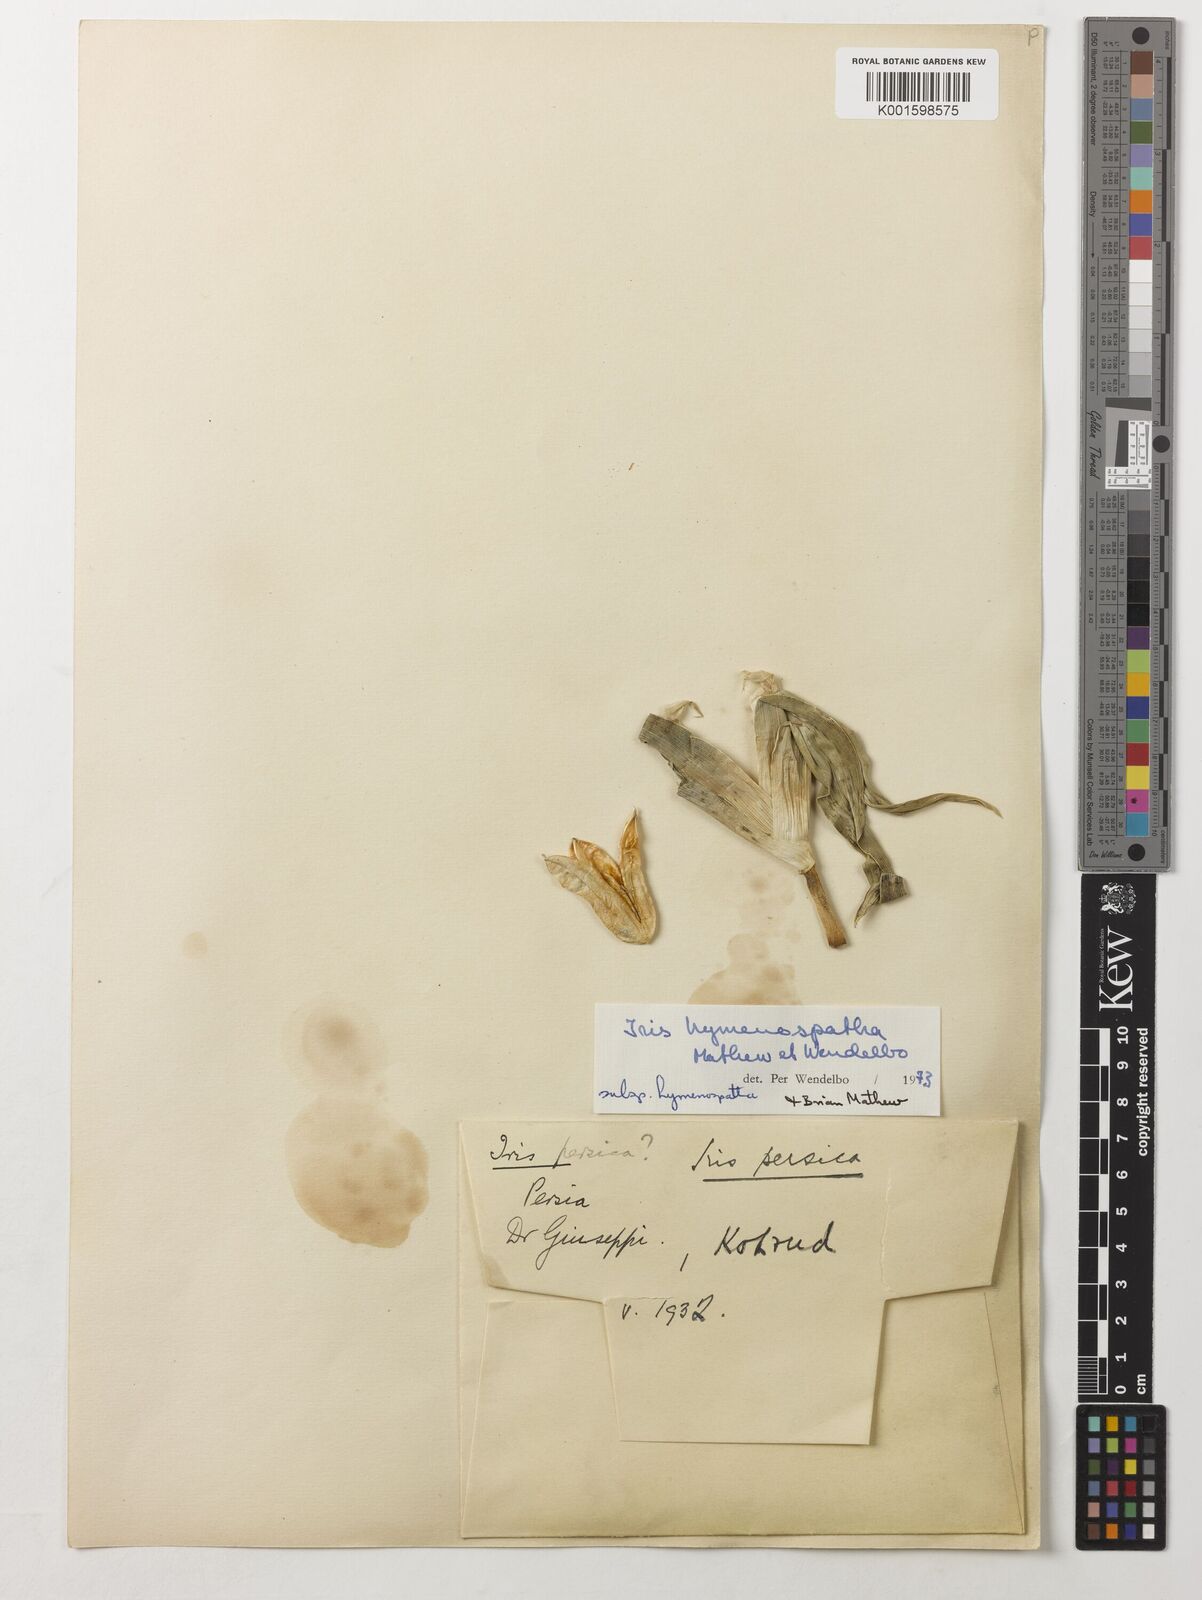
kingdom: Plantae
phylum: Tracheophyta
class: Liliopsida
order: Asparagales
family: Iridaceae
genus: Iris
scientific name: Iris hymenospatha
